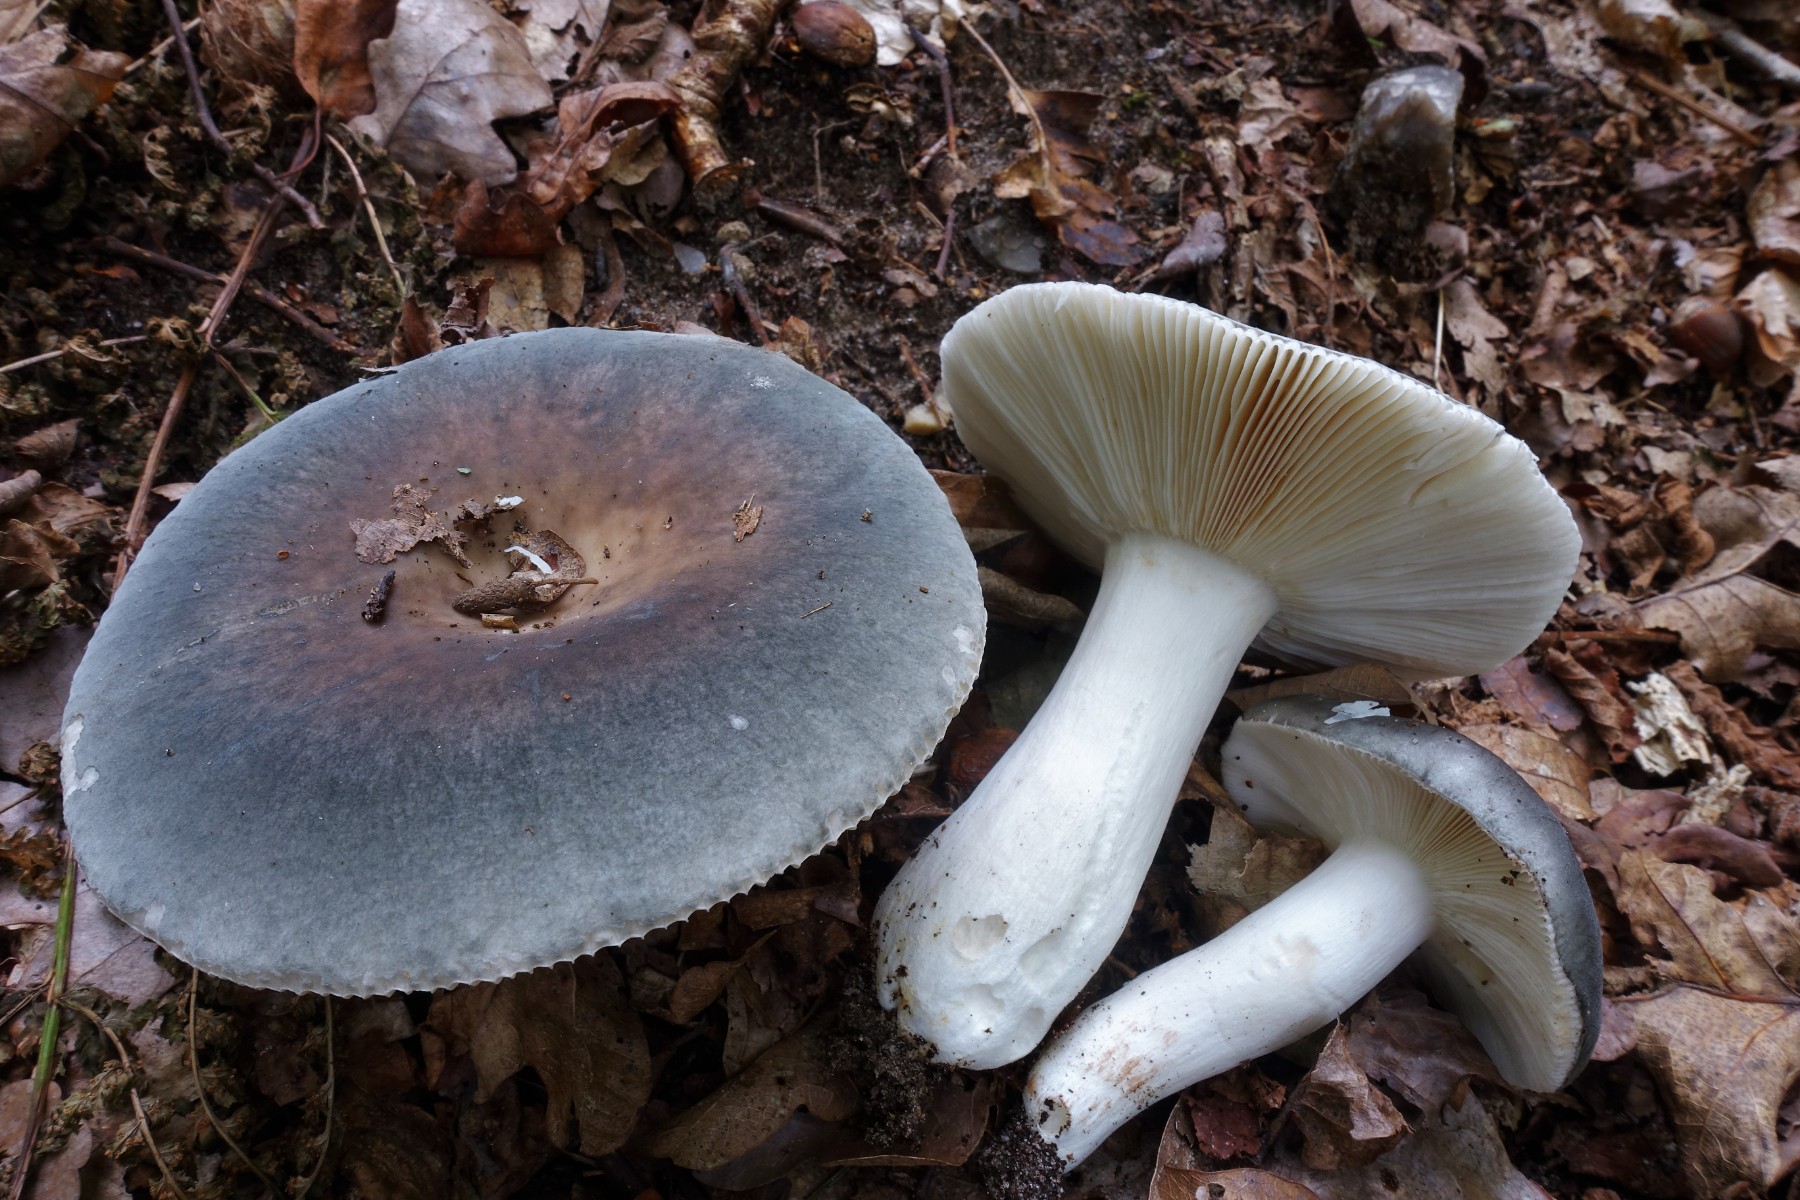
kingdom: Fungi
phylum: Basidiomycota
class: Agaricomycetes
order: Russulales
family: Russulaceae
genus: Russula
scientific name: Russula parazurea
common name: blågrå skørhat
